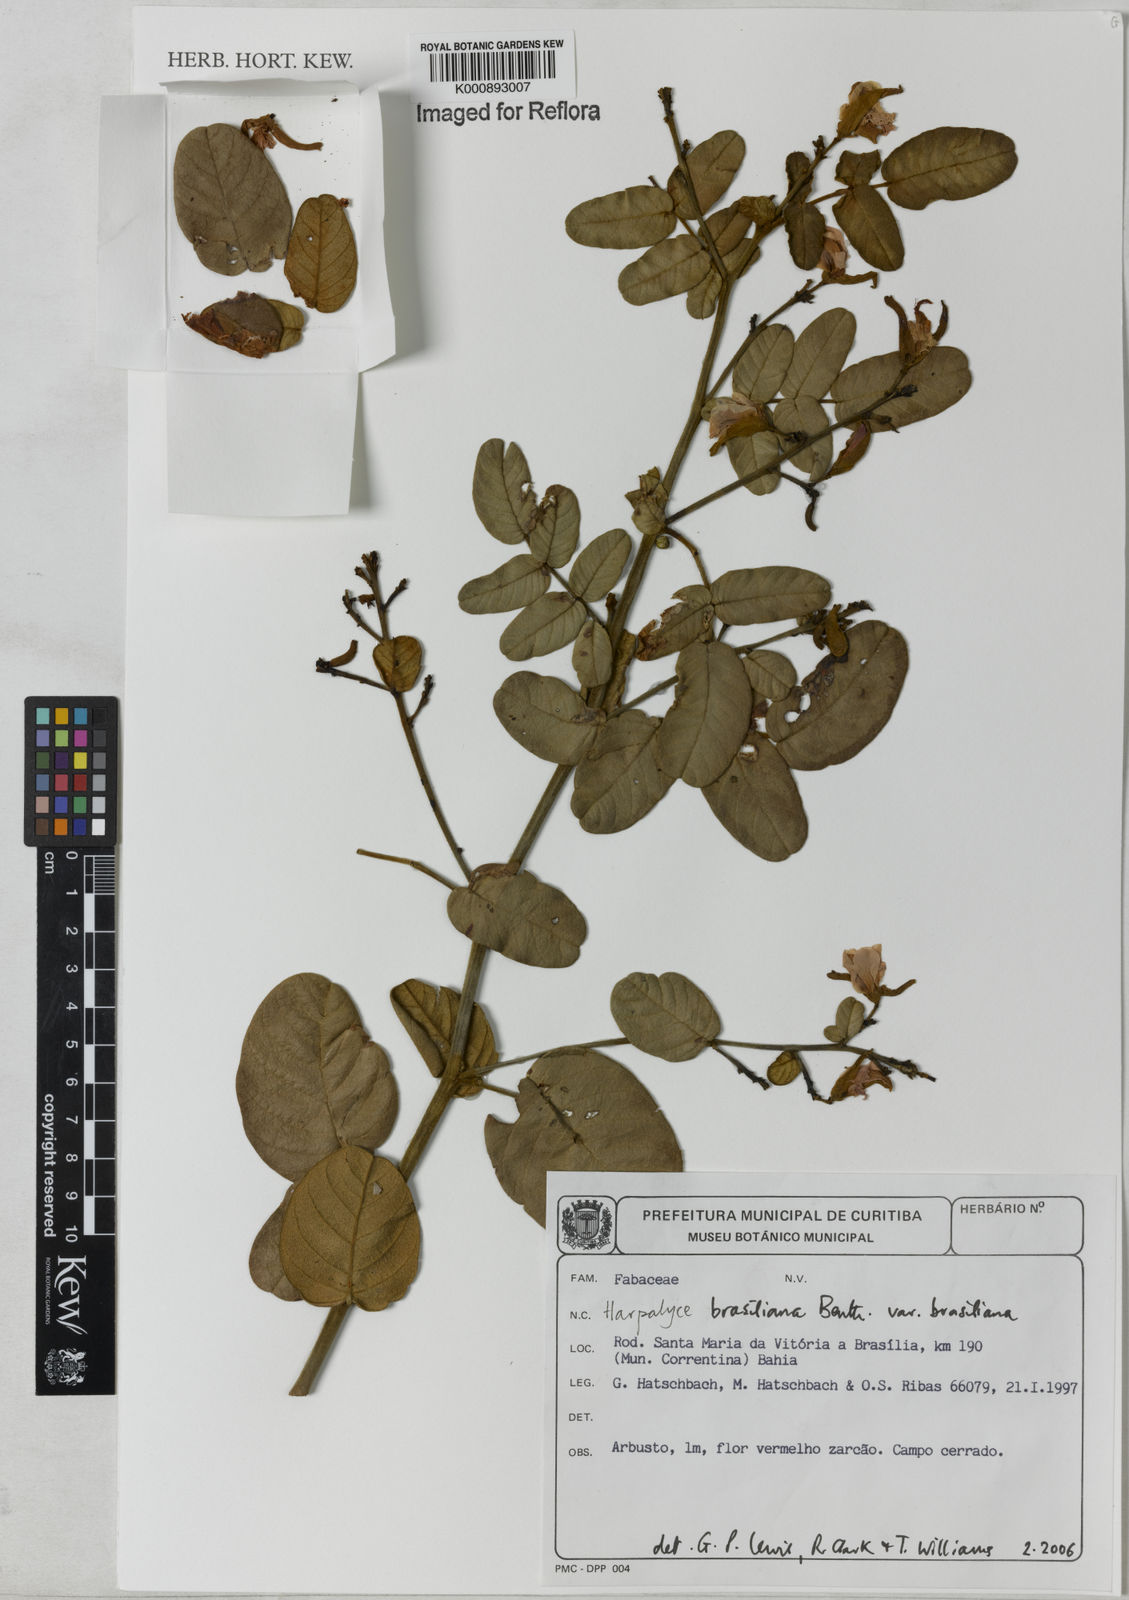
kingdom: Plantae
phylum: Tracheophyta
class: Magnoliopsida
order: Fabales
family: Fabaceae
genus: Harpalyce
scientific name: Harpalyce brasiliana
